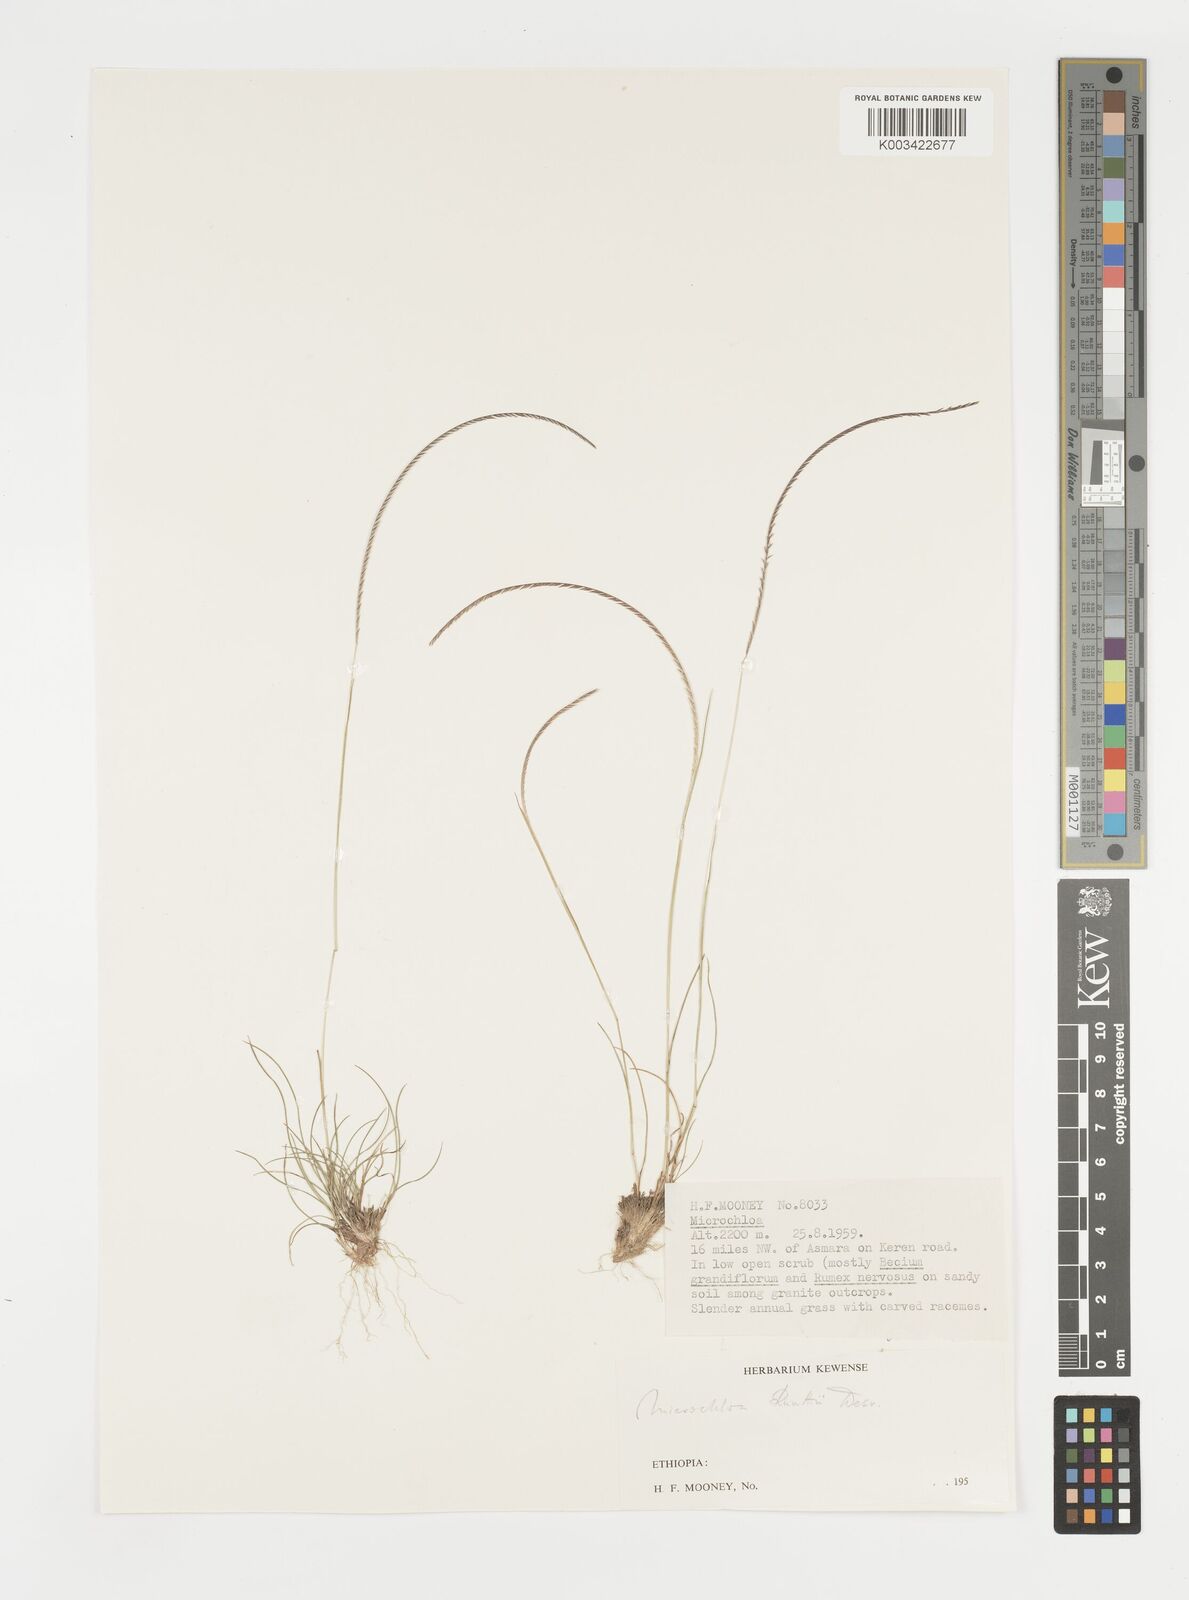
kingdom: Plantae
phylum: Tracheophyta
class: Liliopsida
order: Poales
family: Poaceae
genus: Microchloa
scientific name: Microchloa kunthii
